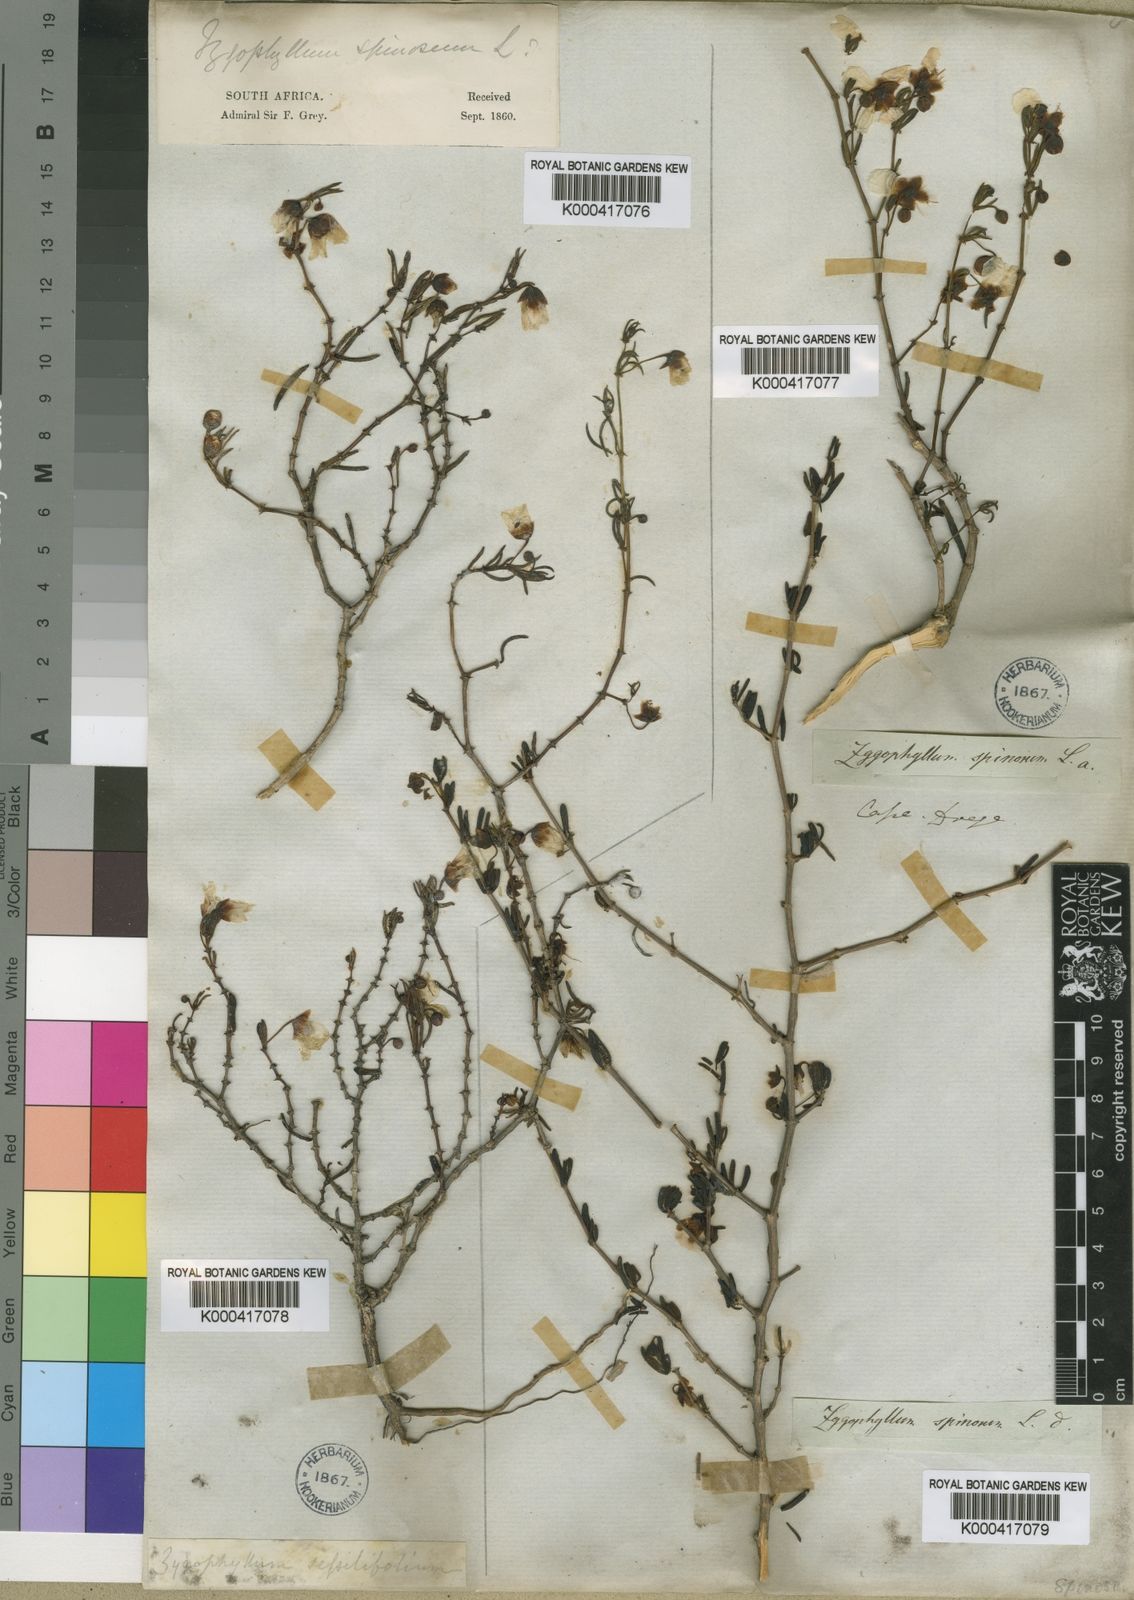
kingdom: Plantae
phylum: Tracheophyta
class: Magnoliopsida
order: Zygophyllales
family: Zygophyllaceae
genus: Roepera
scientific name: Roepera spinosa
